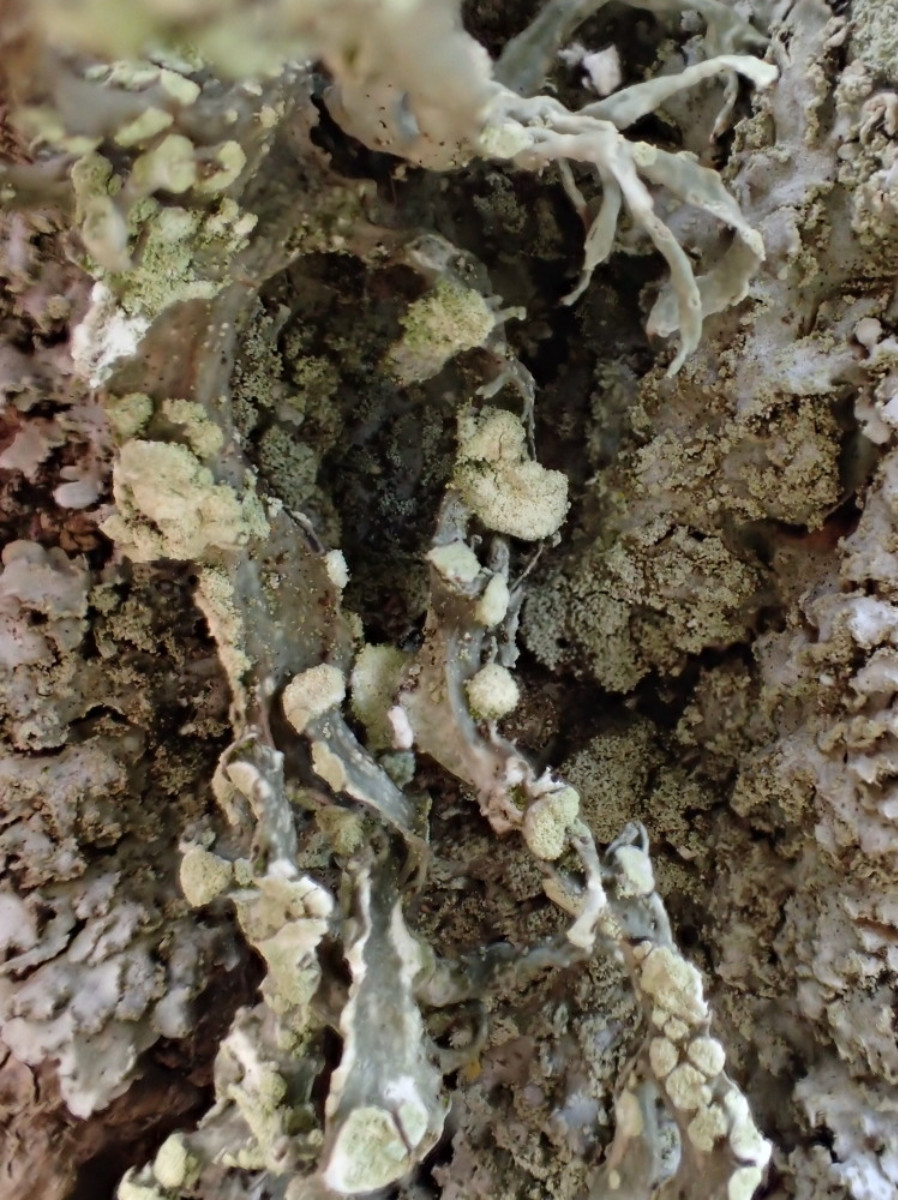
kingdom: Fungi
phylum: Ascomycota
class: Lecanoromycetes
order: Lecanorales
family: Ramalinaceae
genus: Ramalina
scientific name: Ramalina farinacea
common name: melet grenlav
